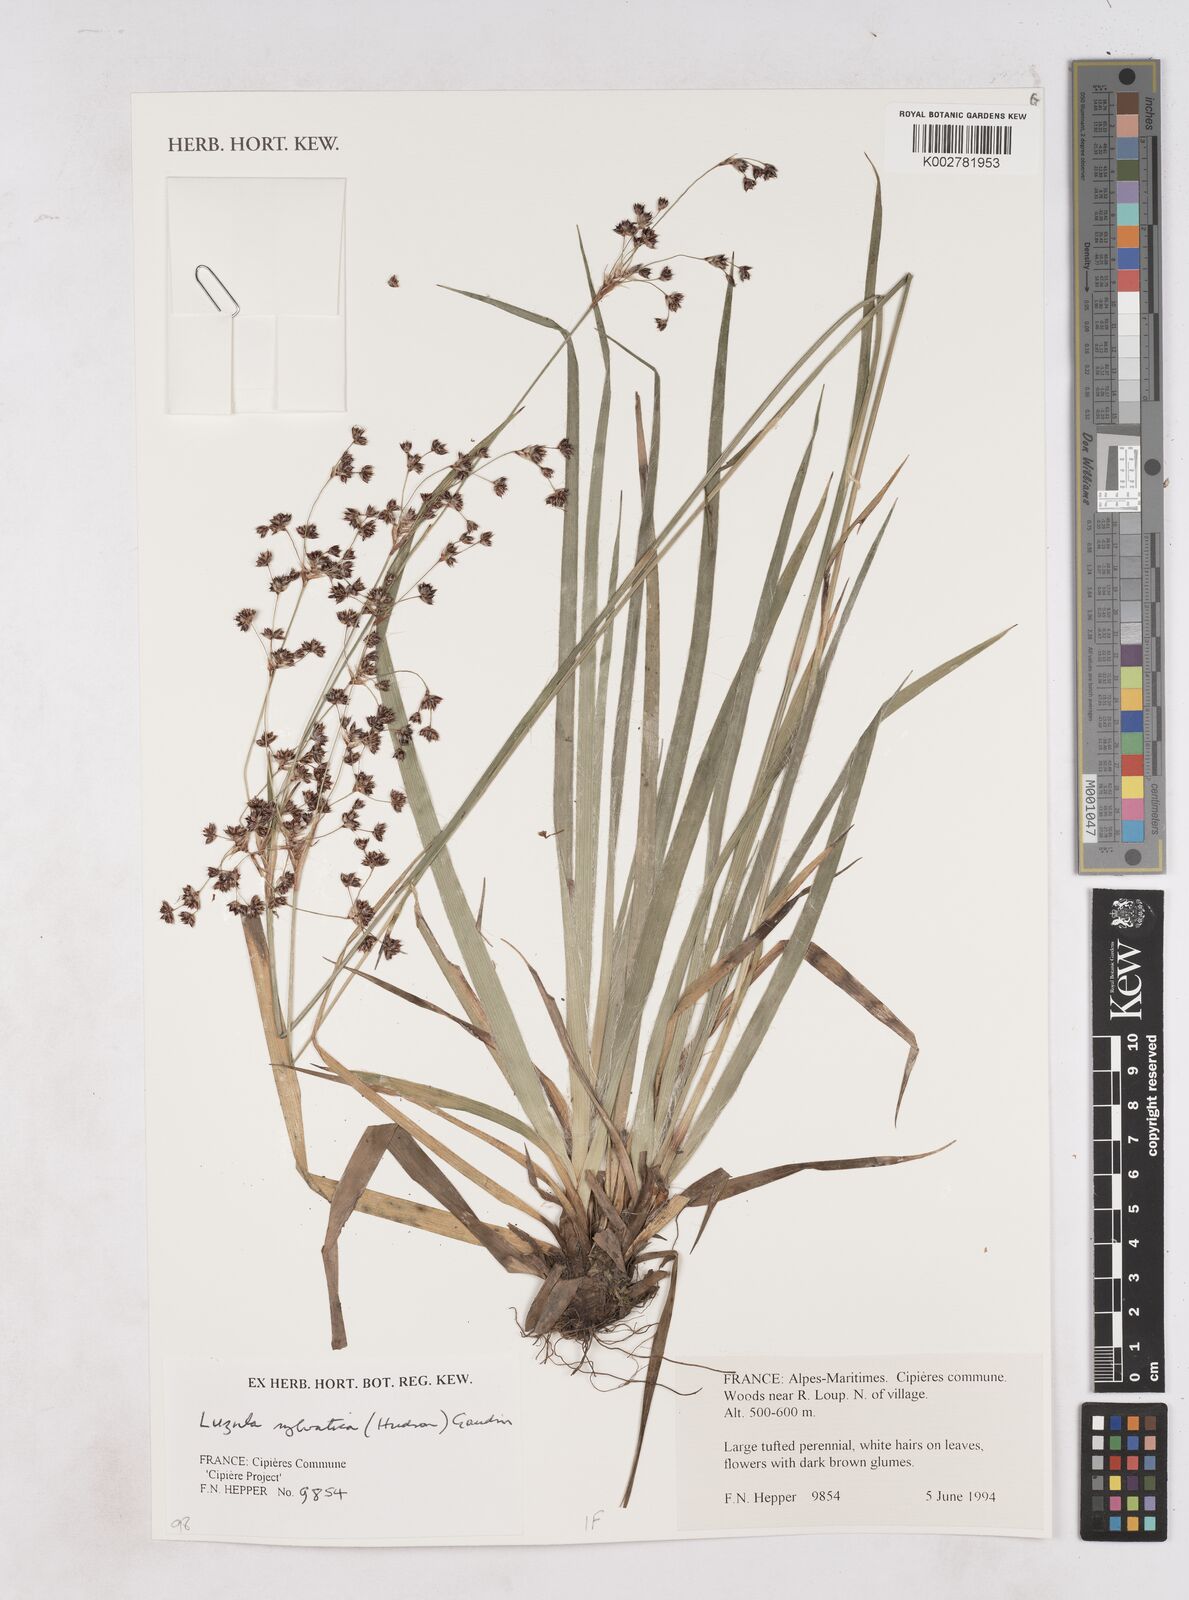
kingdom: Plantae
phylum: Tracheophyta
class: Liliopsida
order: Poales
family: Juncaceae
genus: Luzula
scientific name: Luzula sylvatica
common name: Great wood-rush
